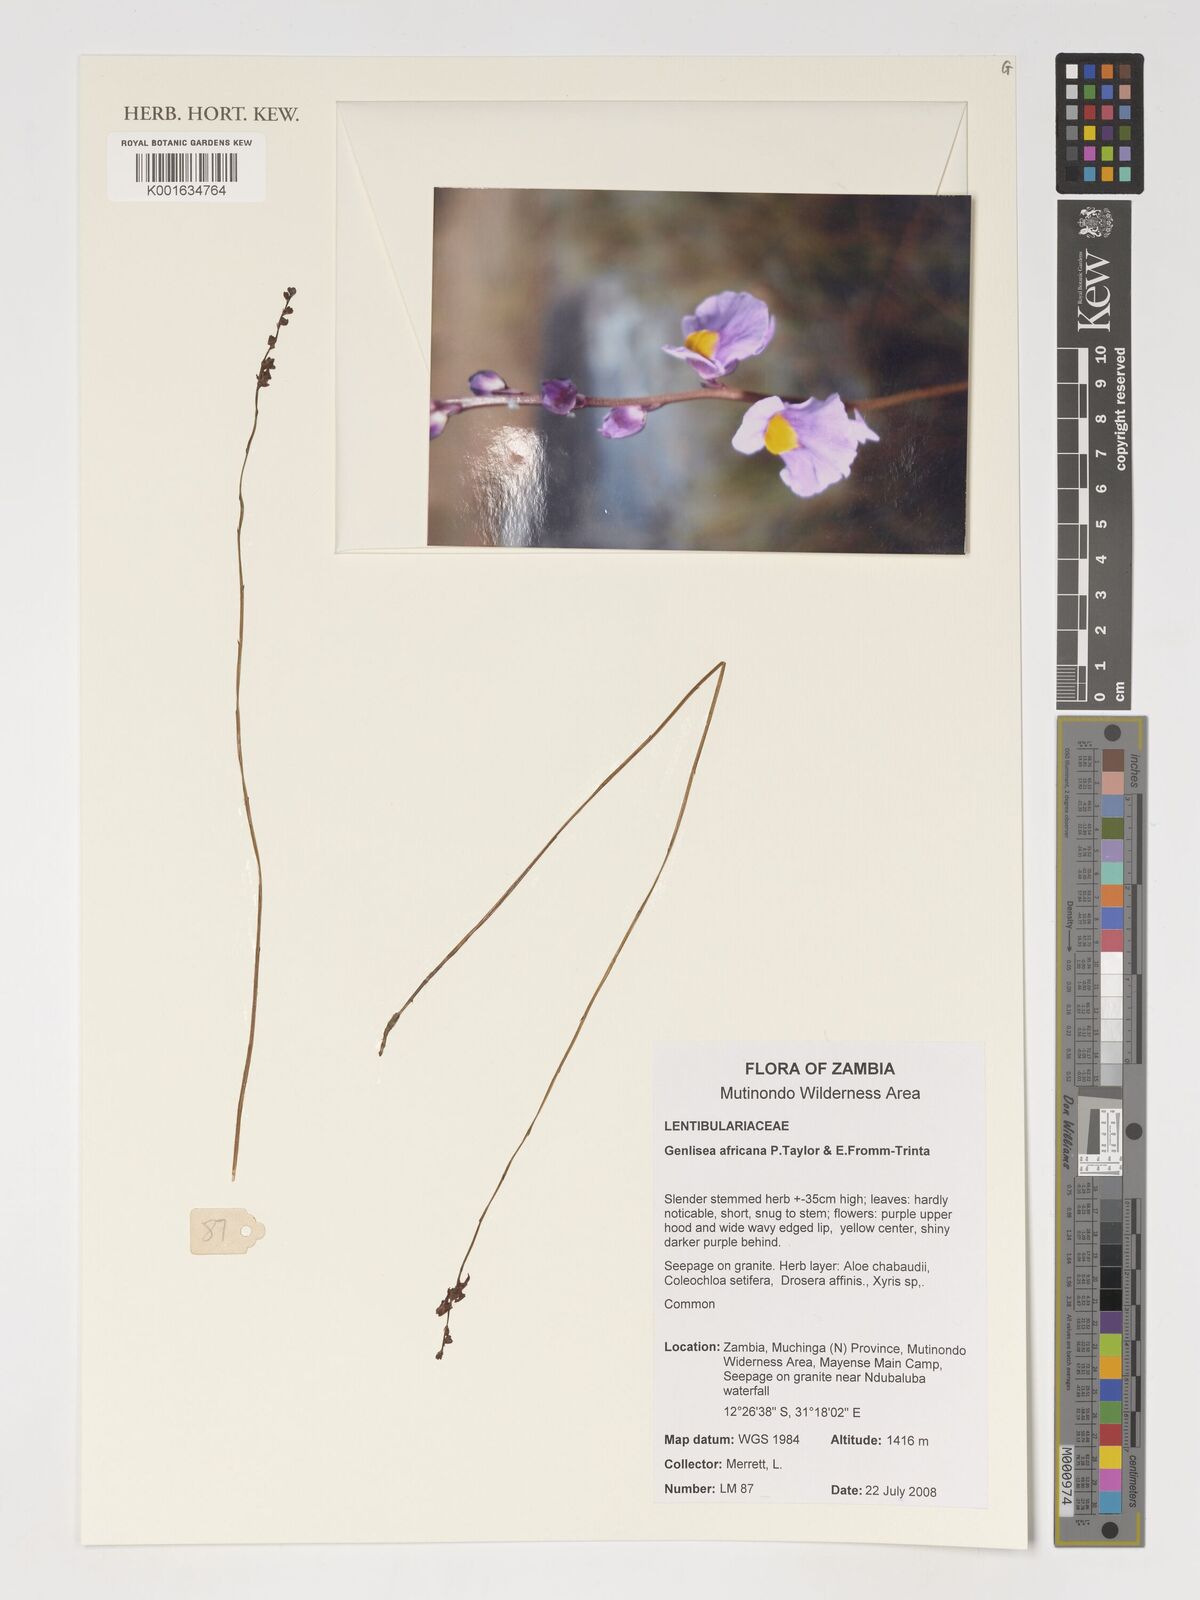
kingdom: Plantae
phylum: Tracheophyta
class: Magnoliopsida
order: Lamiales
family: Lentibulariaceae
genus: Utricularia
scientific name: Utricularia welwitschii
